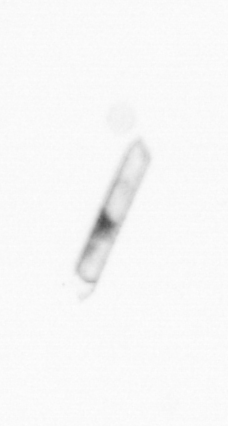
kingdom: Chromista
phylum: Ochrophyta
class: Bacillariophyceae
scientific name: Bacillariophyceae
